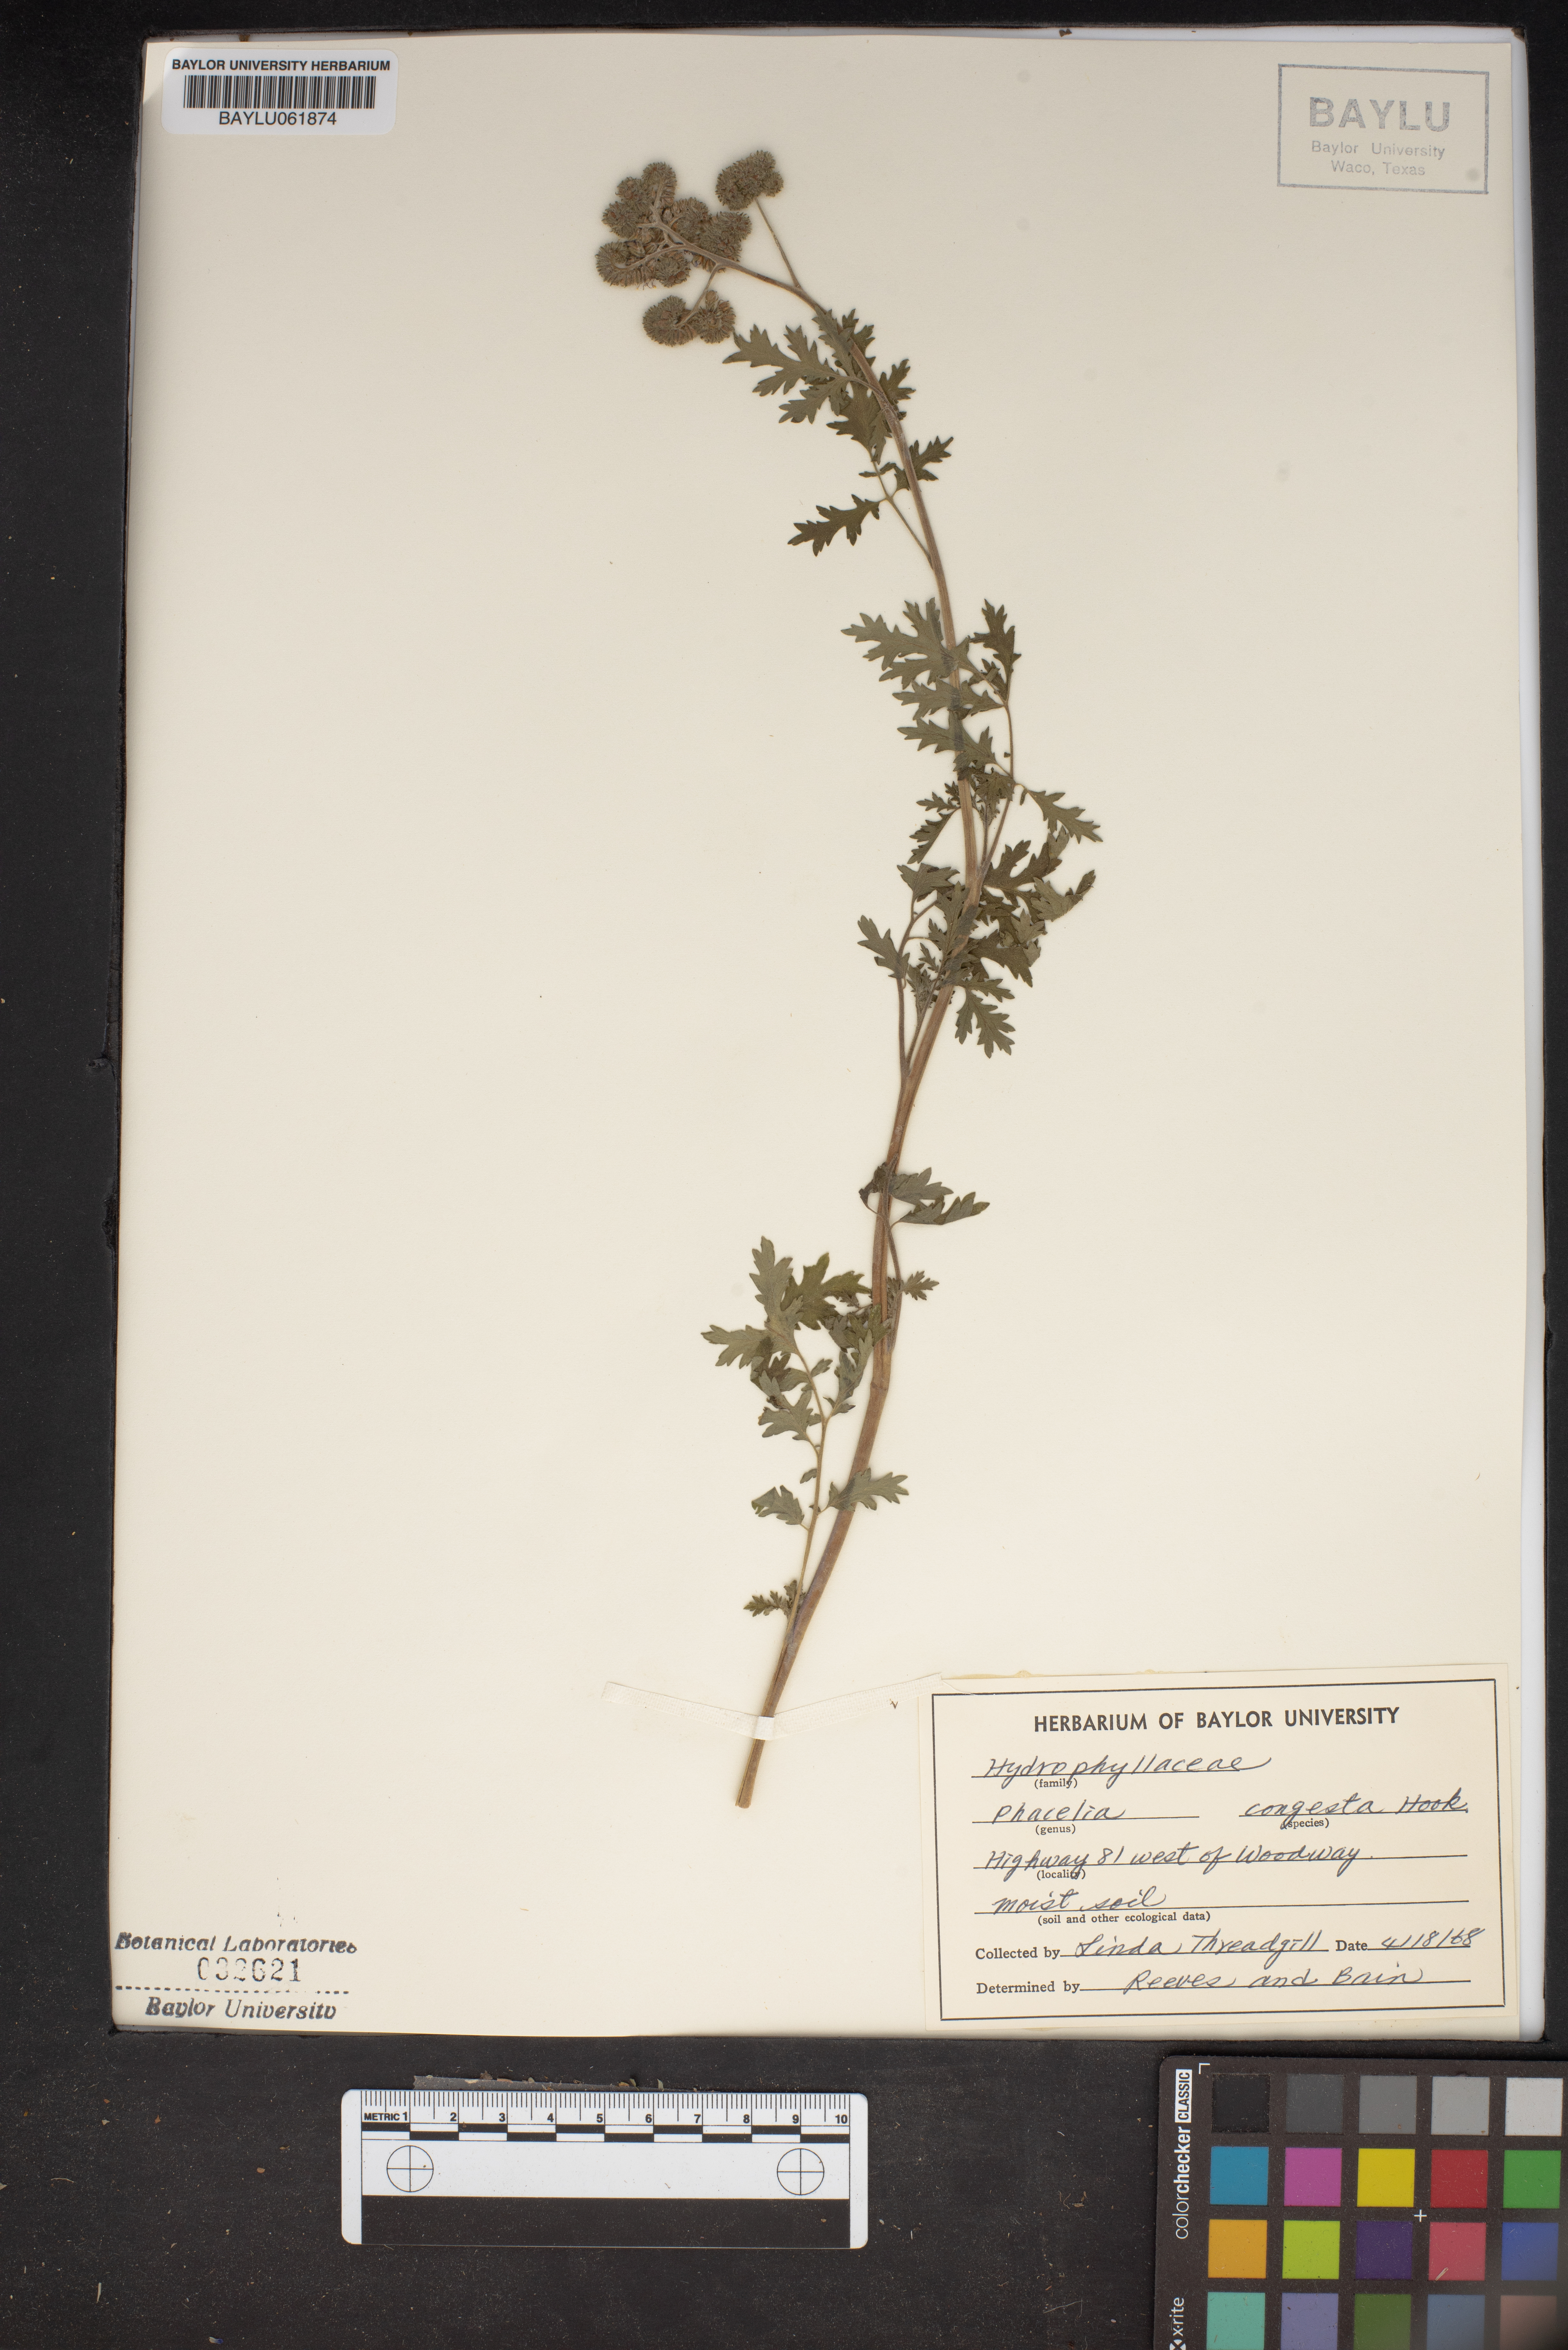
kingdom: Plantae
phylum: Tracheophyta
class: Magnoliopsida
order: Boraginales
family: Hydrophyllaceae
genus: Phacelia
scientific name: Phacelia congesta
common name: Blue curls
